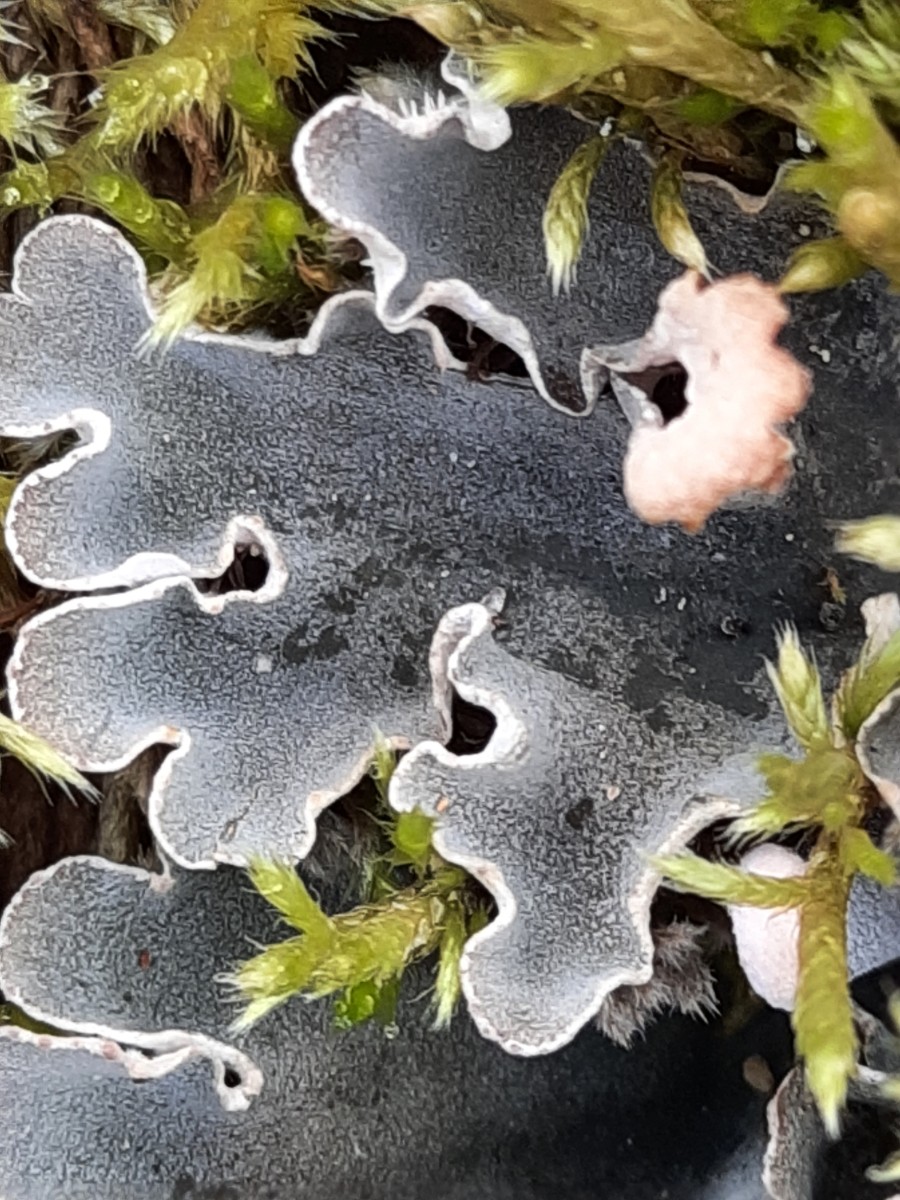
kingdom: Fungi
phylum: Ascomycota
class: Lecanoromycetes
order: Peltigerales
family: Peltigeraceae
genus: Peltigera
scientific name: Peltigera didactyla
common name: liden skjoldlav
